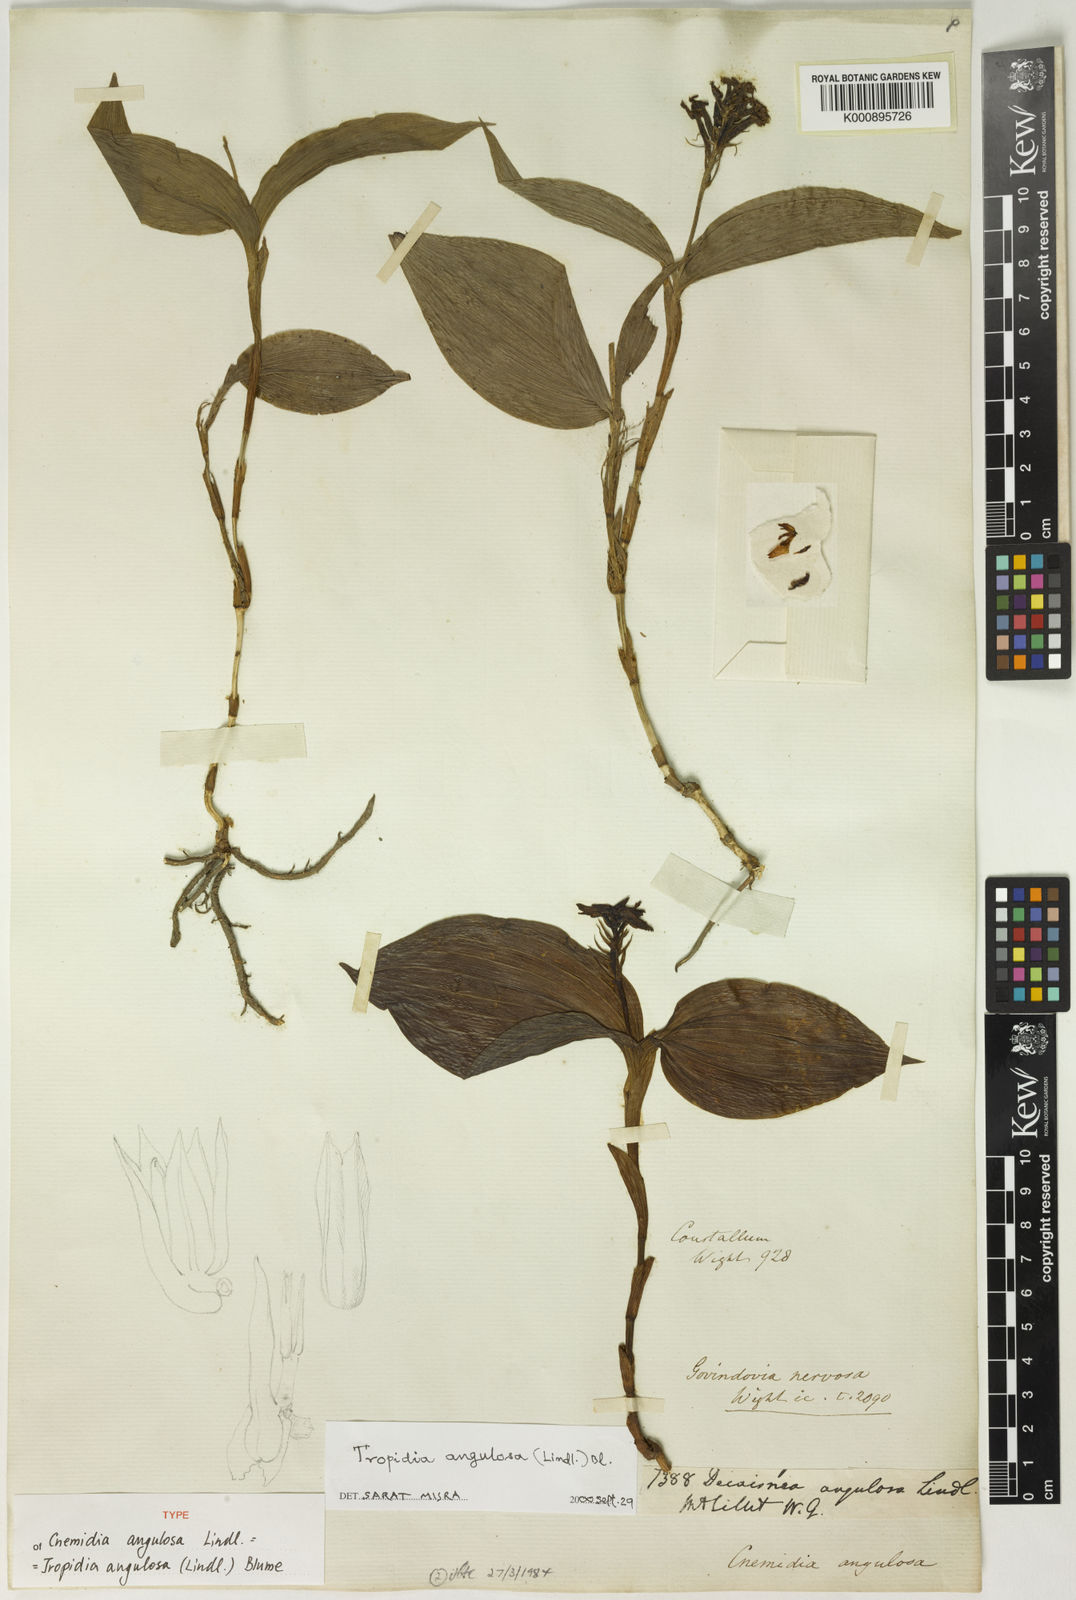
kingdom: Plantae
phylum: Tracheophyta
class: Liliopsida
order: Asparagales
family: Orchidaceae
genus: Tropidia
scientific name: Tropidia angulosa
